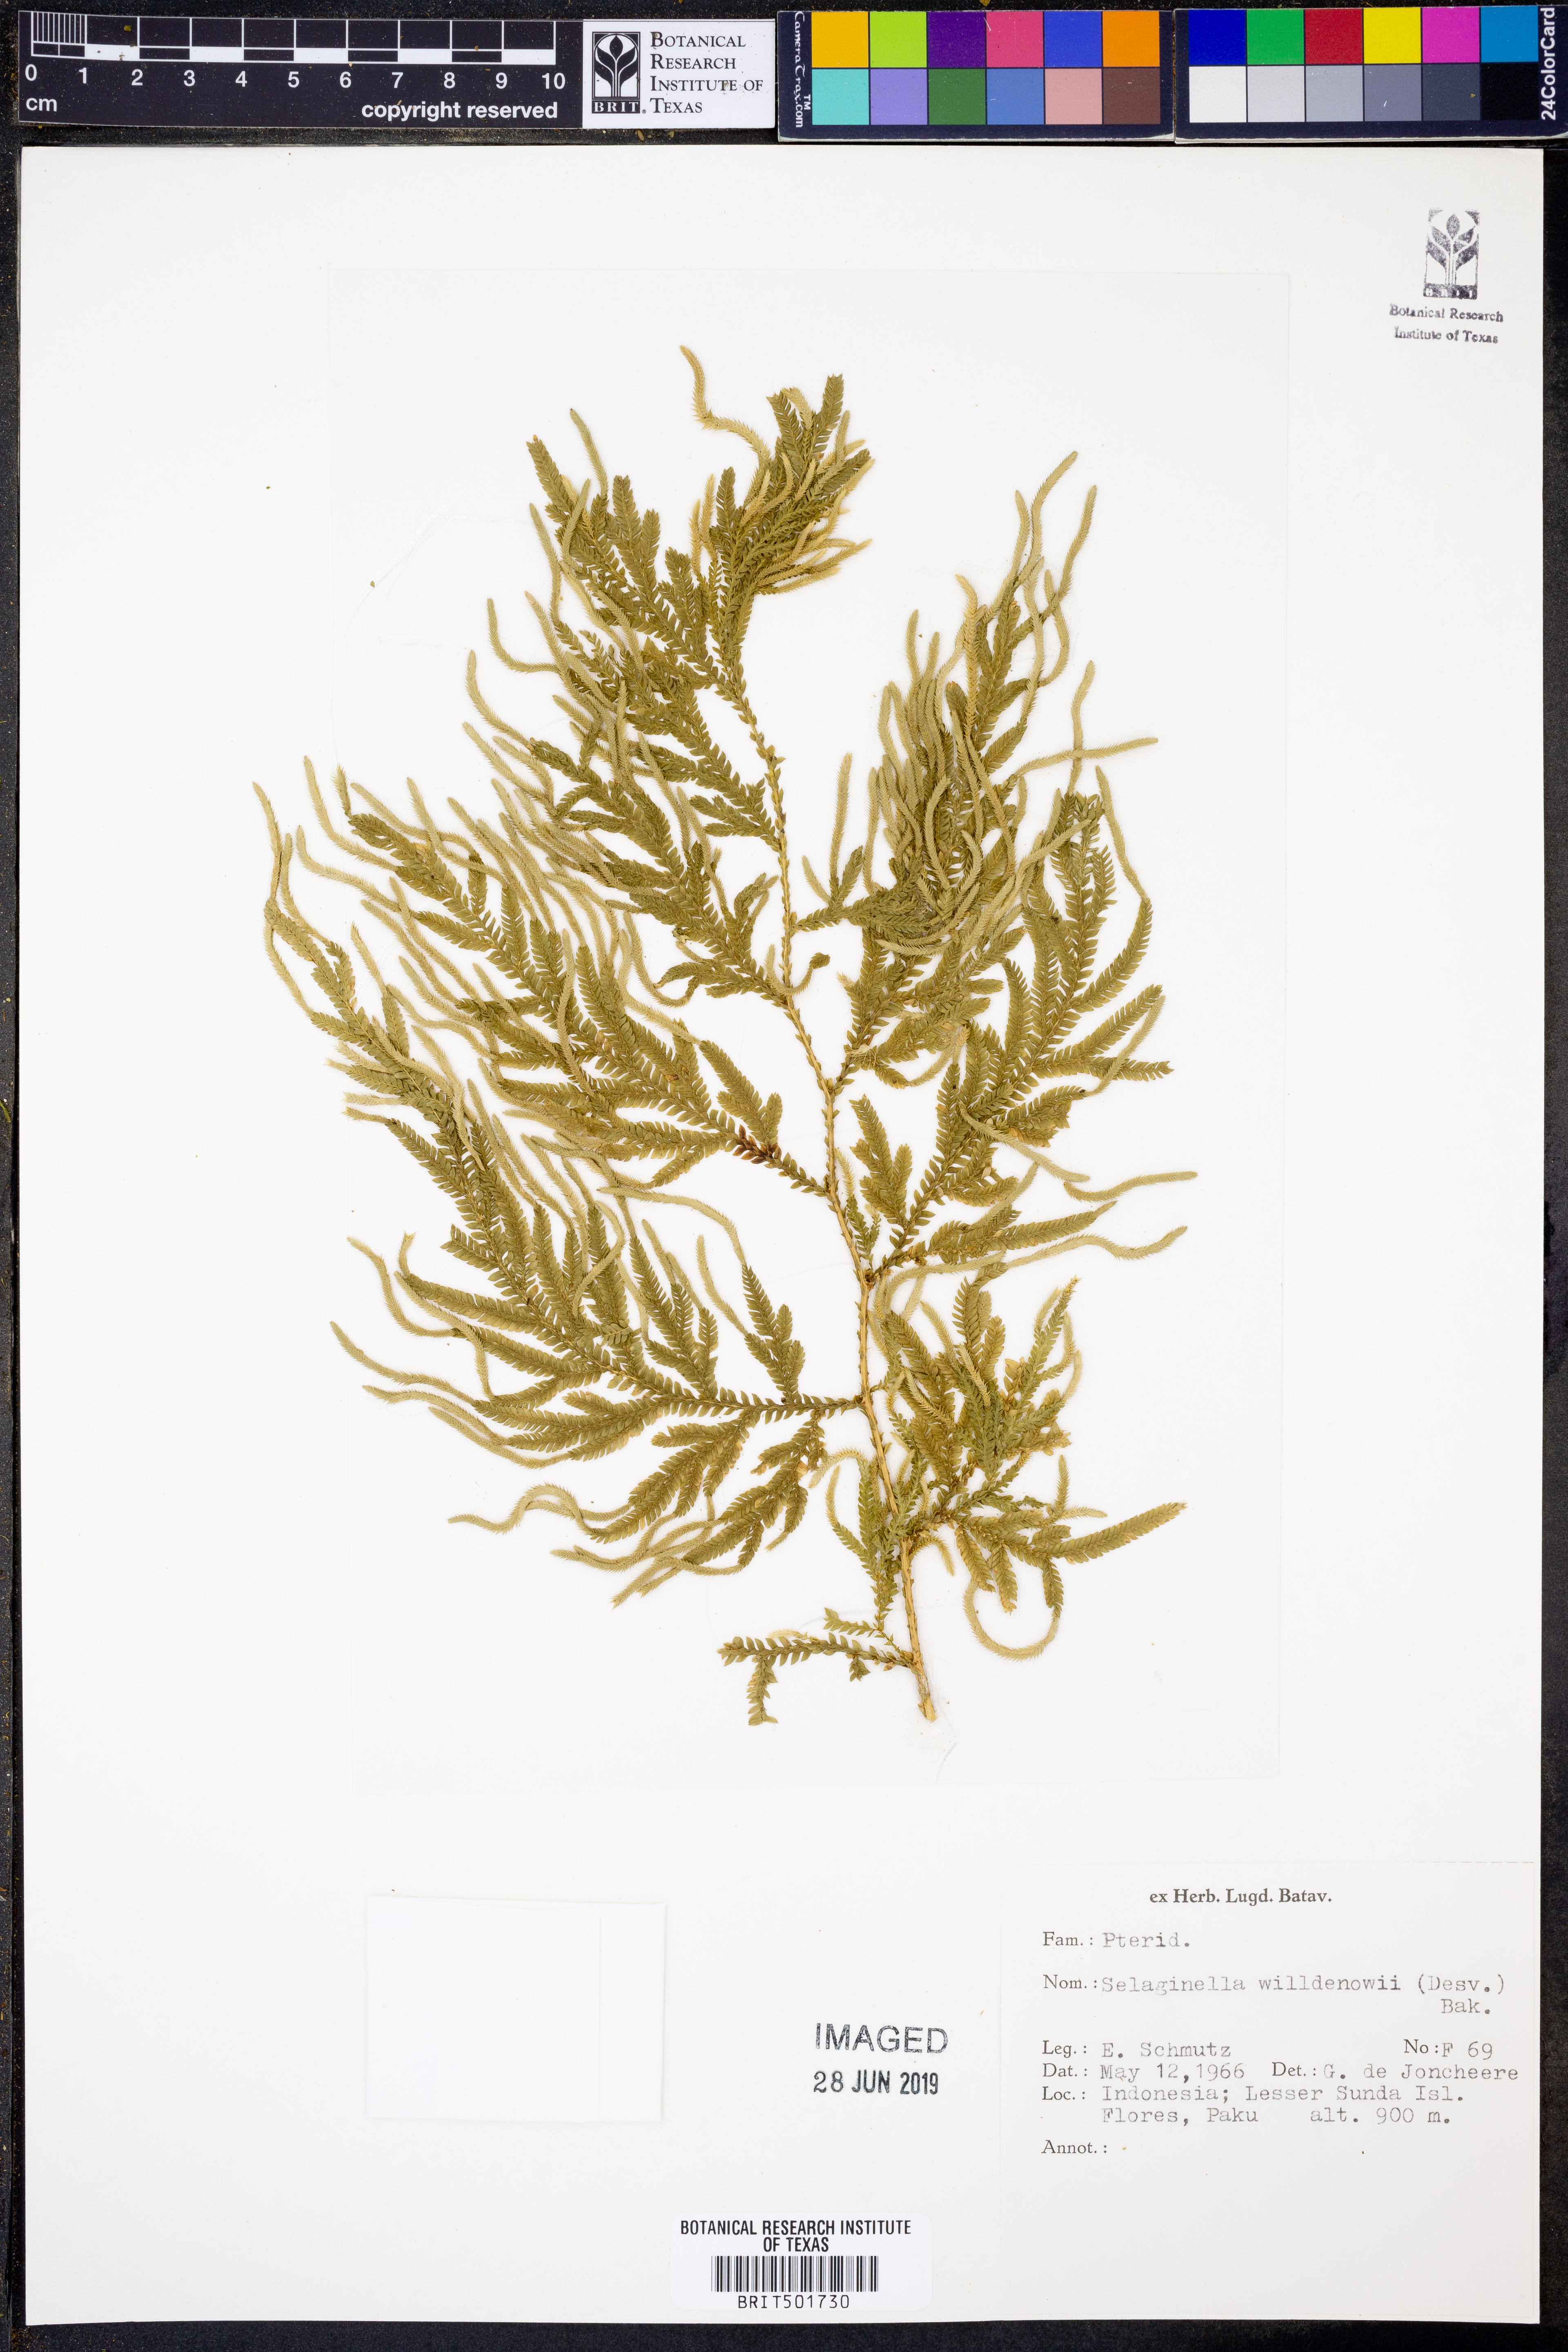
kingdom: Plantae
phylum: Tracheophyta
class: Lycopodiopsida
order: Selaginellales
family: Selaginellaceae
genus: Selaginella
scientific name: Selaginella willdenowii
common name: Willdenow's spikemoss
